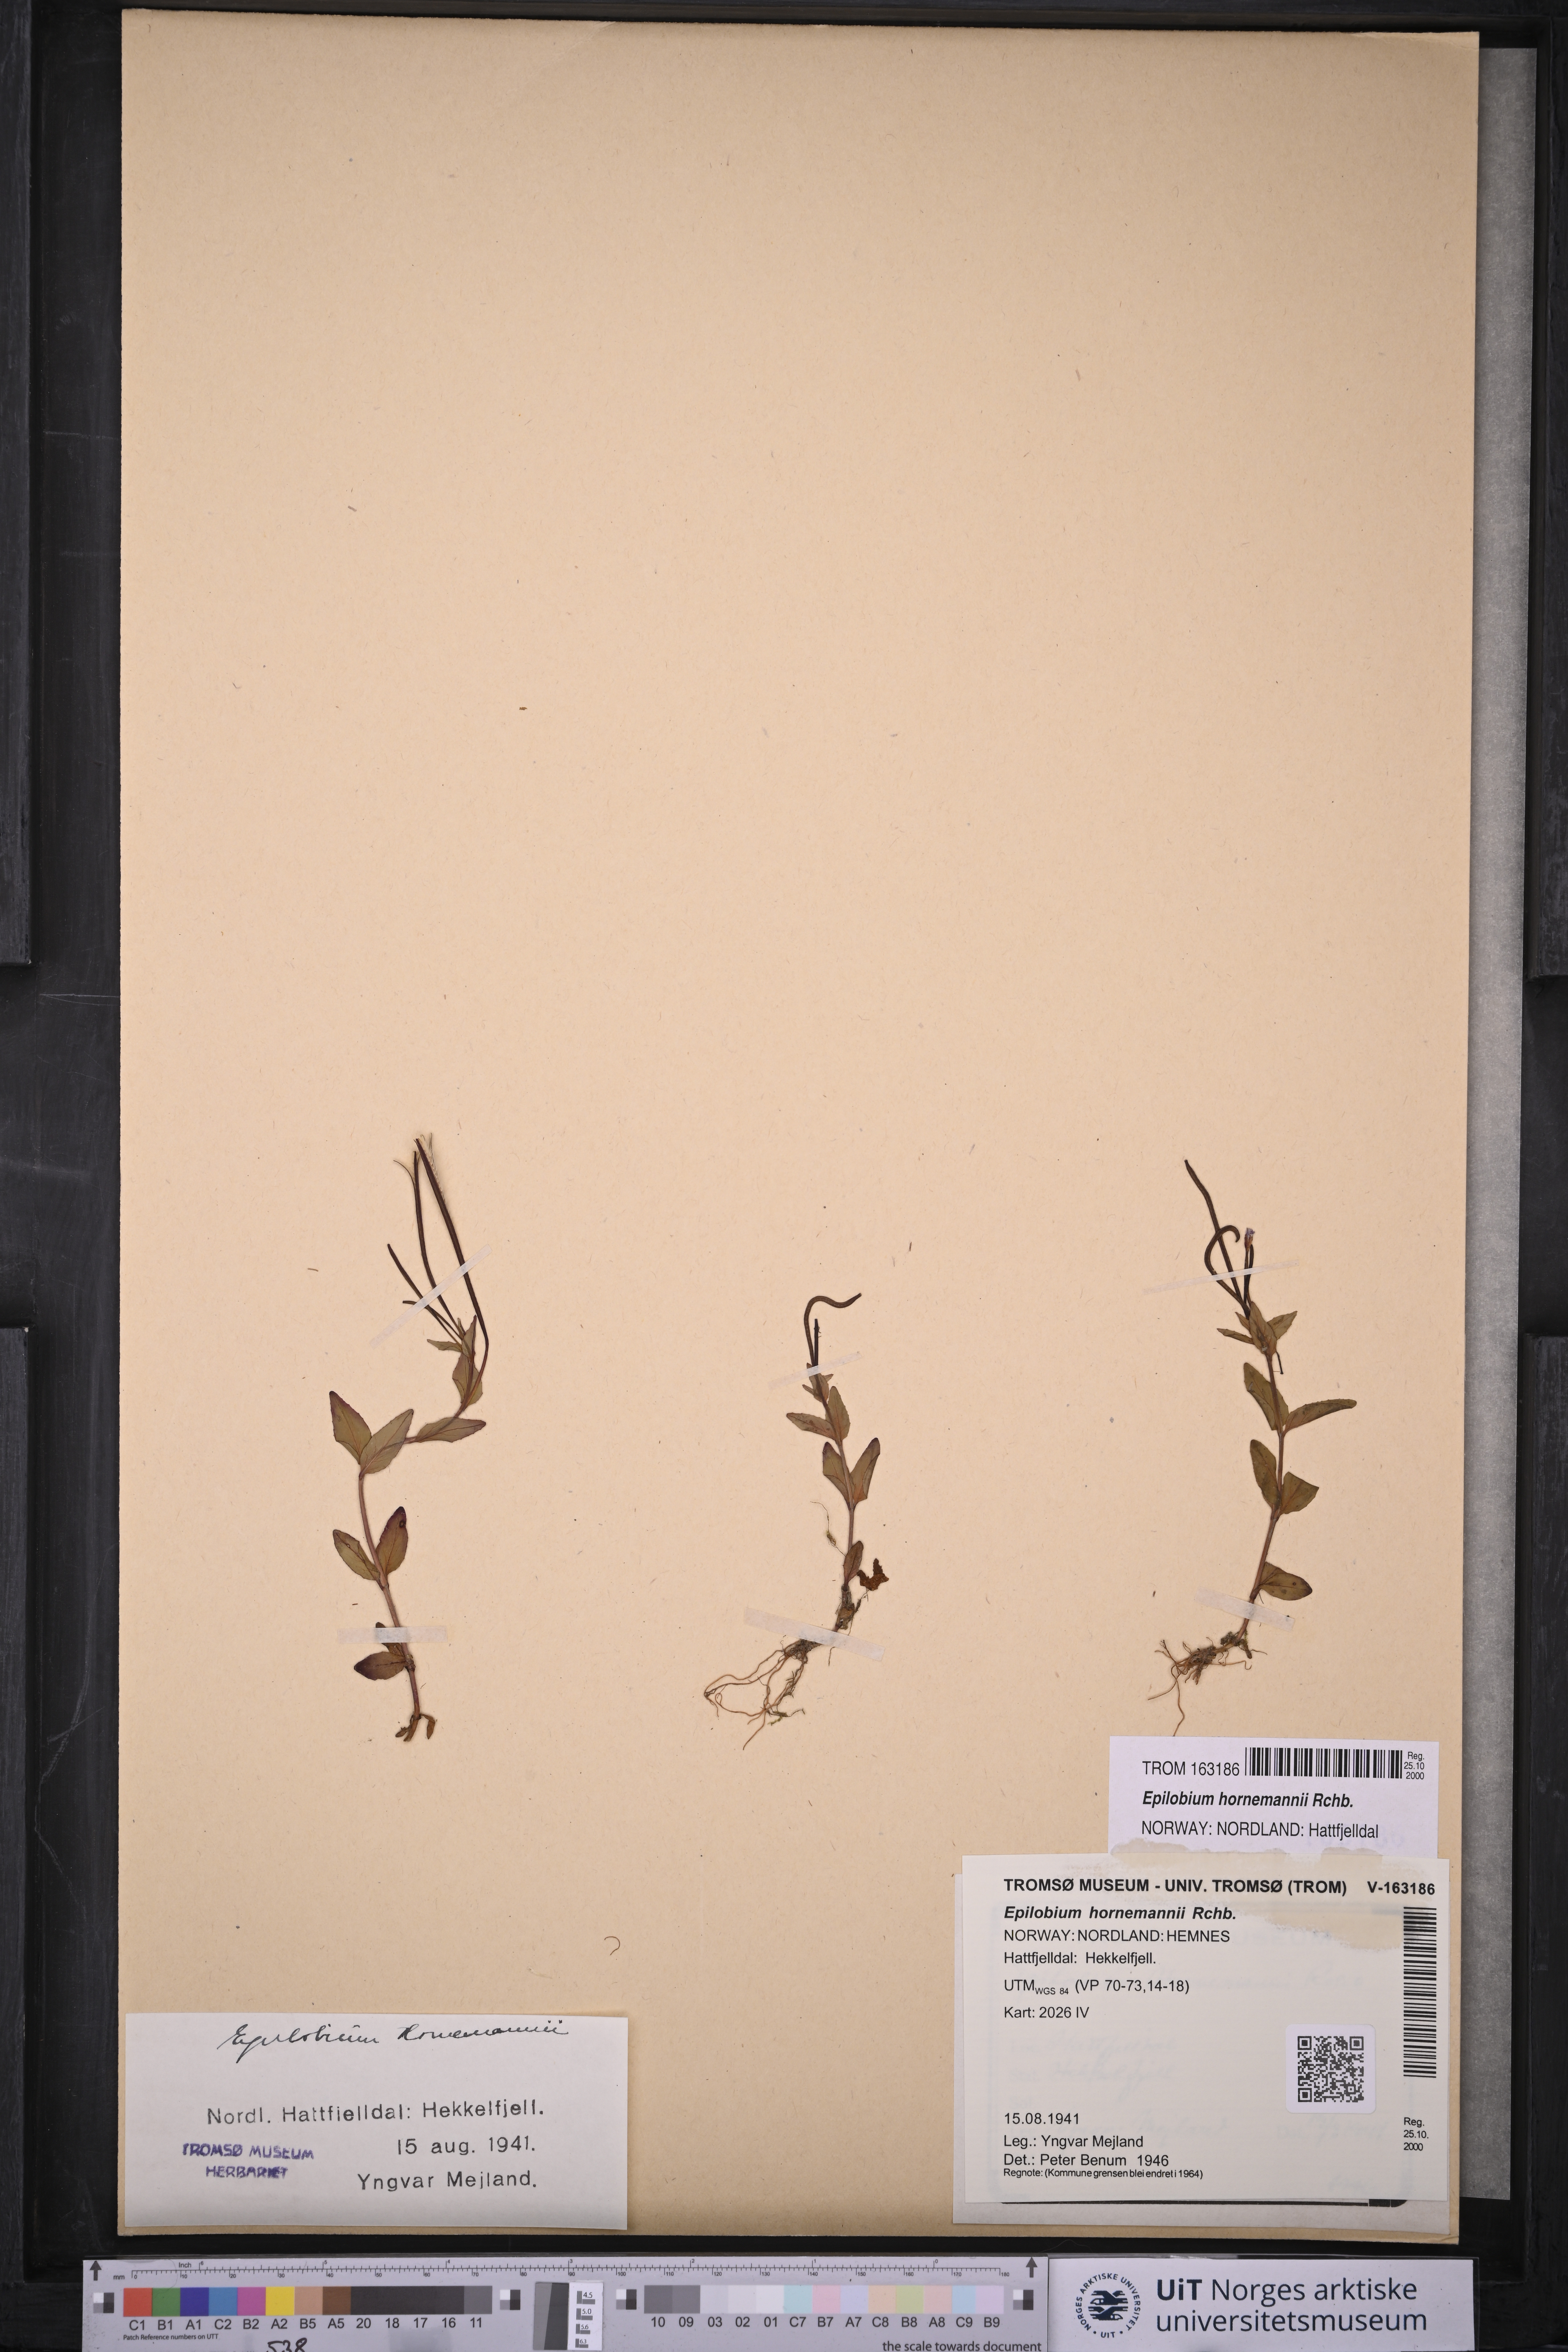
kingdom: Plantae
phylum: Tracheophyta
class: Magnoliopsida
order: Myrtales
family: Onagraceae
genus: Epilobium
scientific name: Epilobium hornemannii
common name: Hornemann's willowherb
